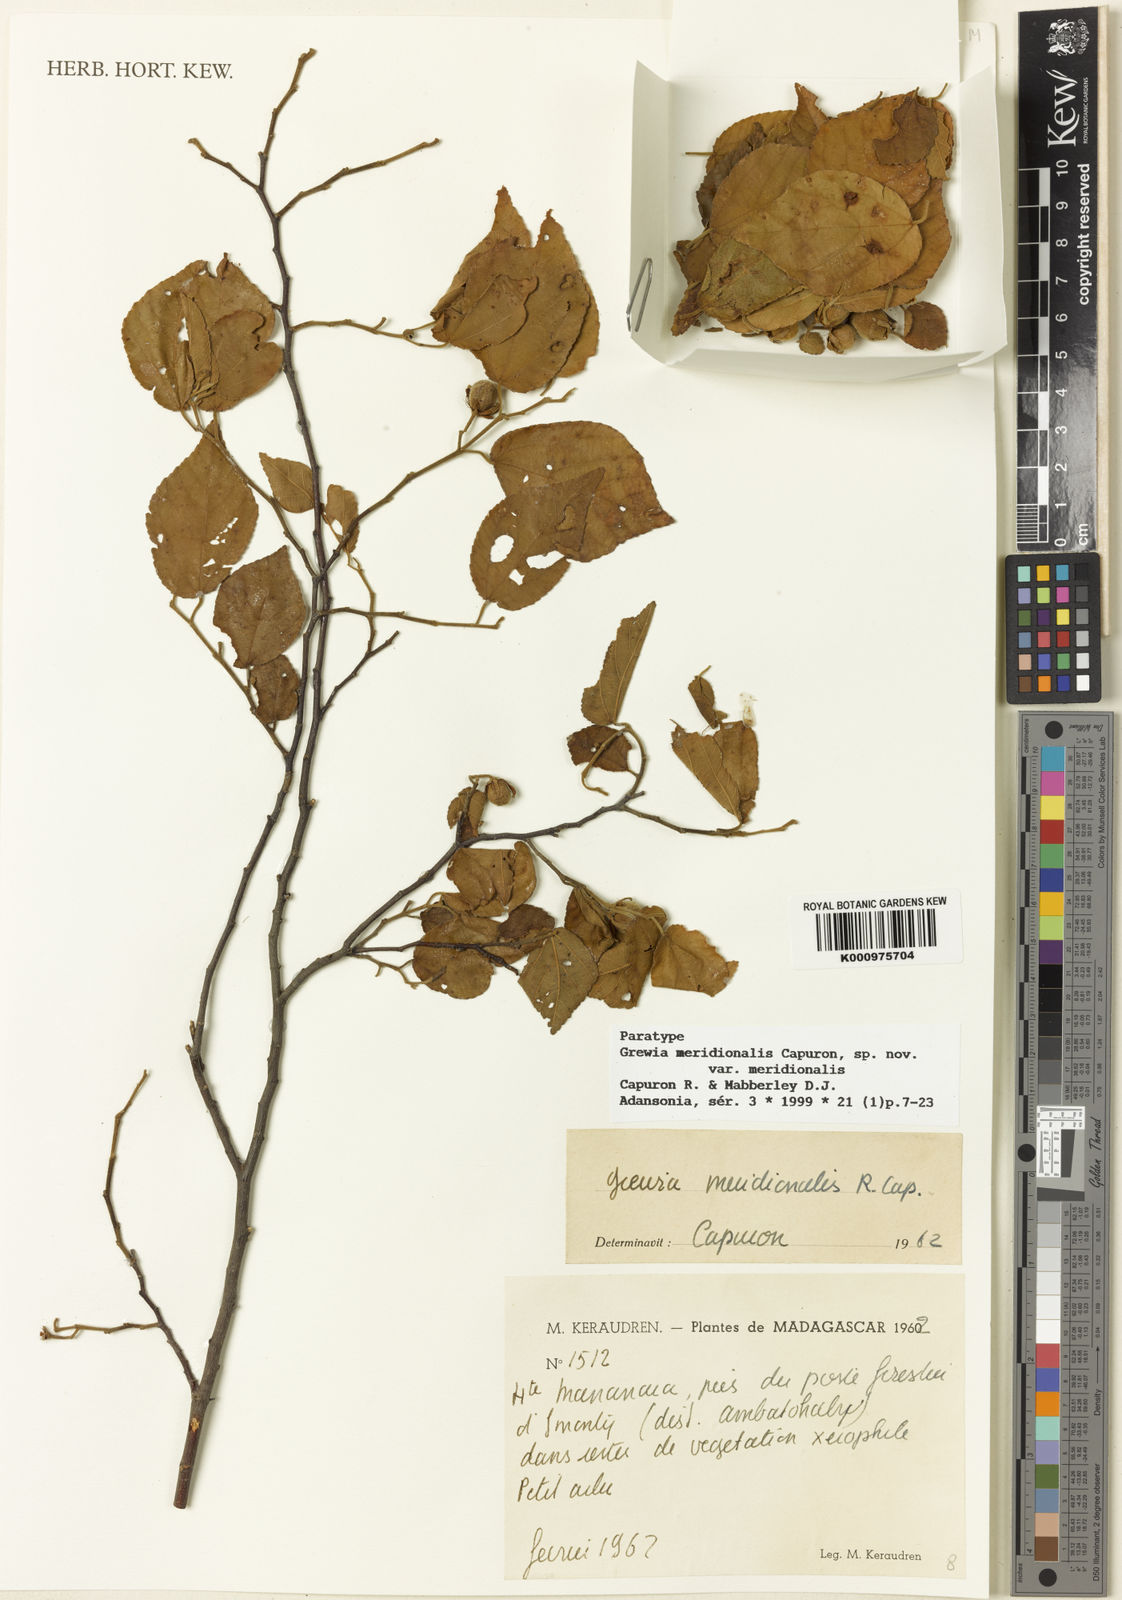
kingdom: Plantae
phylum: Tracheophyta
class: Magnoliopsida
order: Malvales
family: Malvaceae
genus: Grewia
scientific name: Grewia meridionalis
